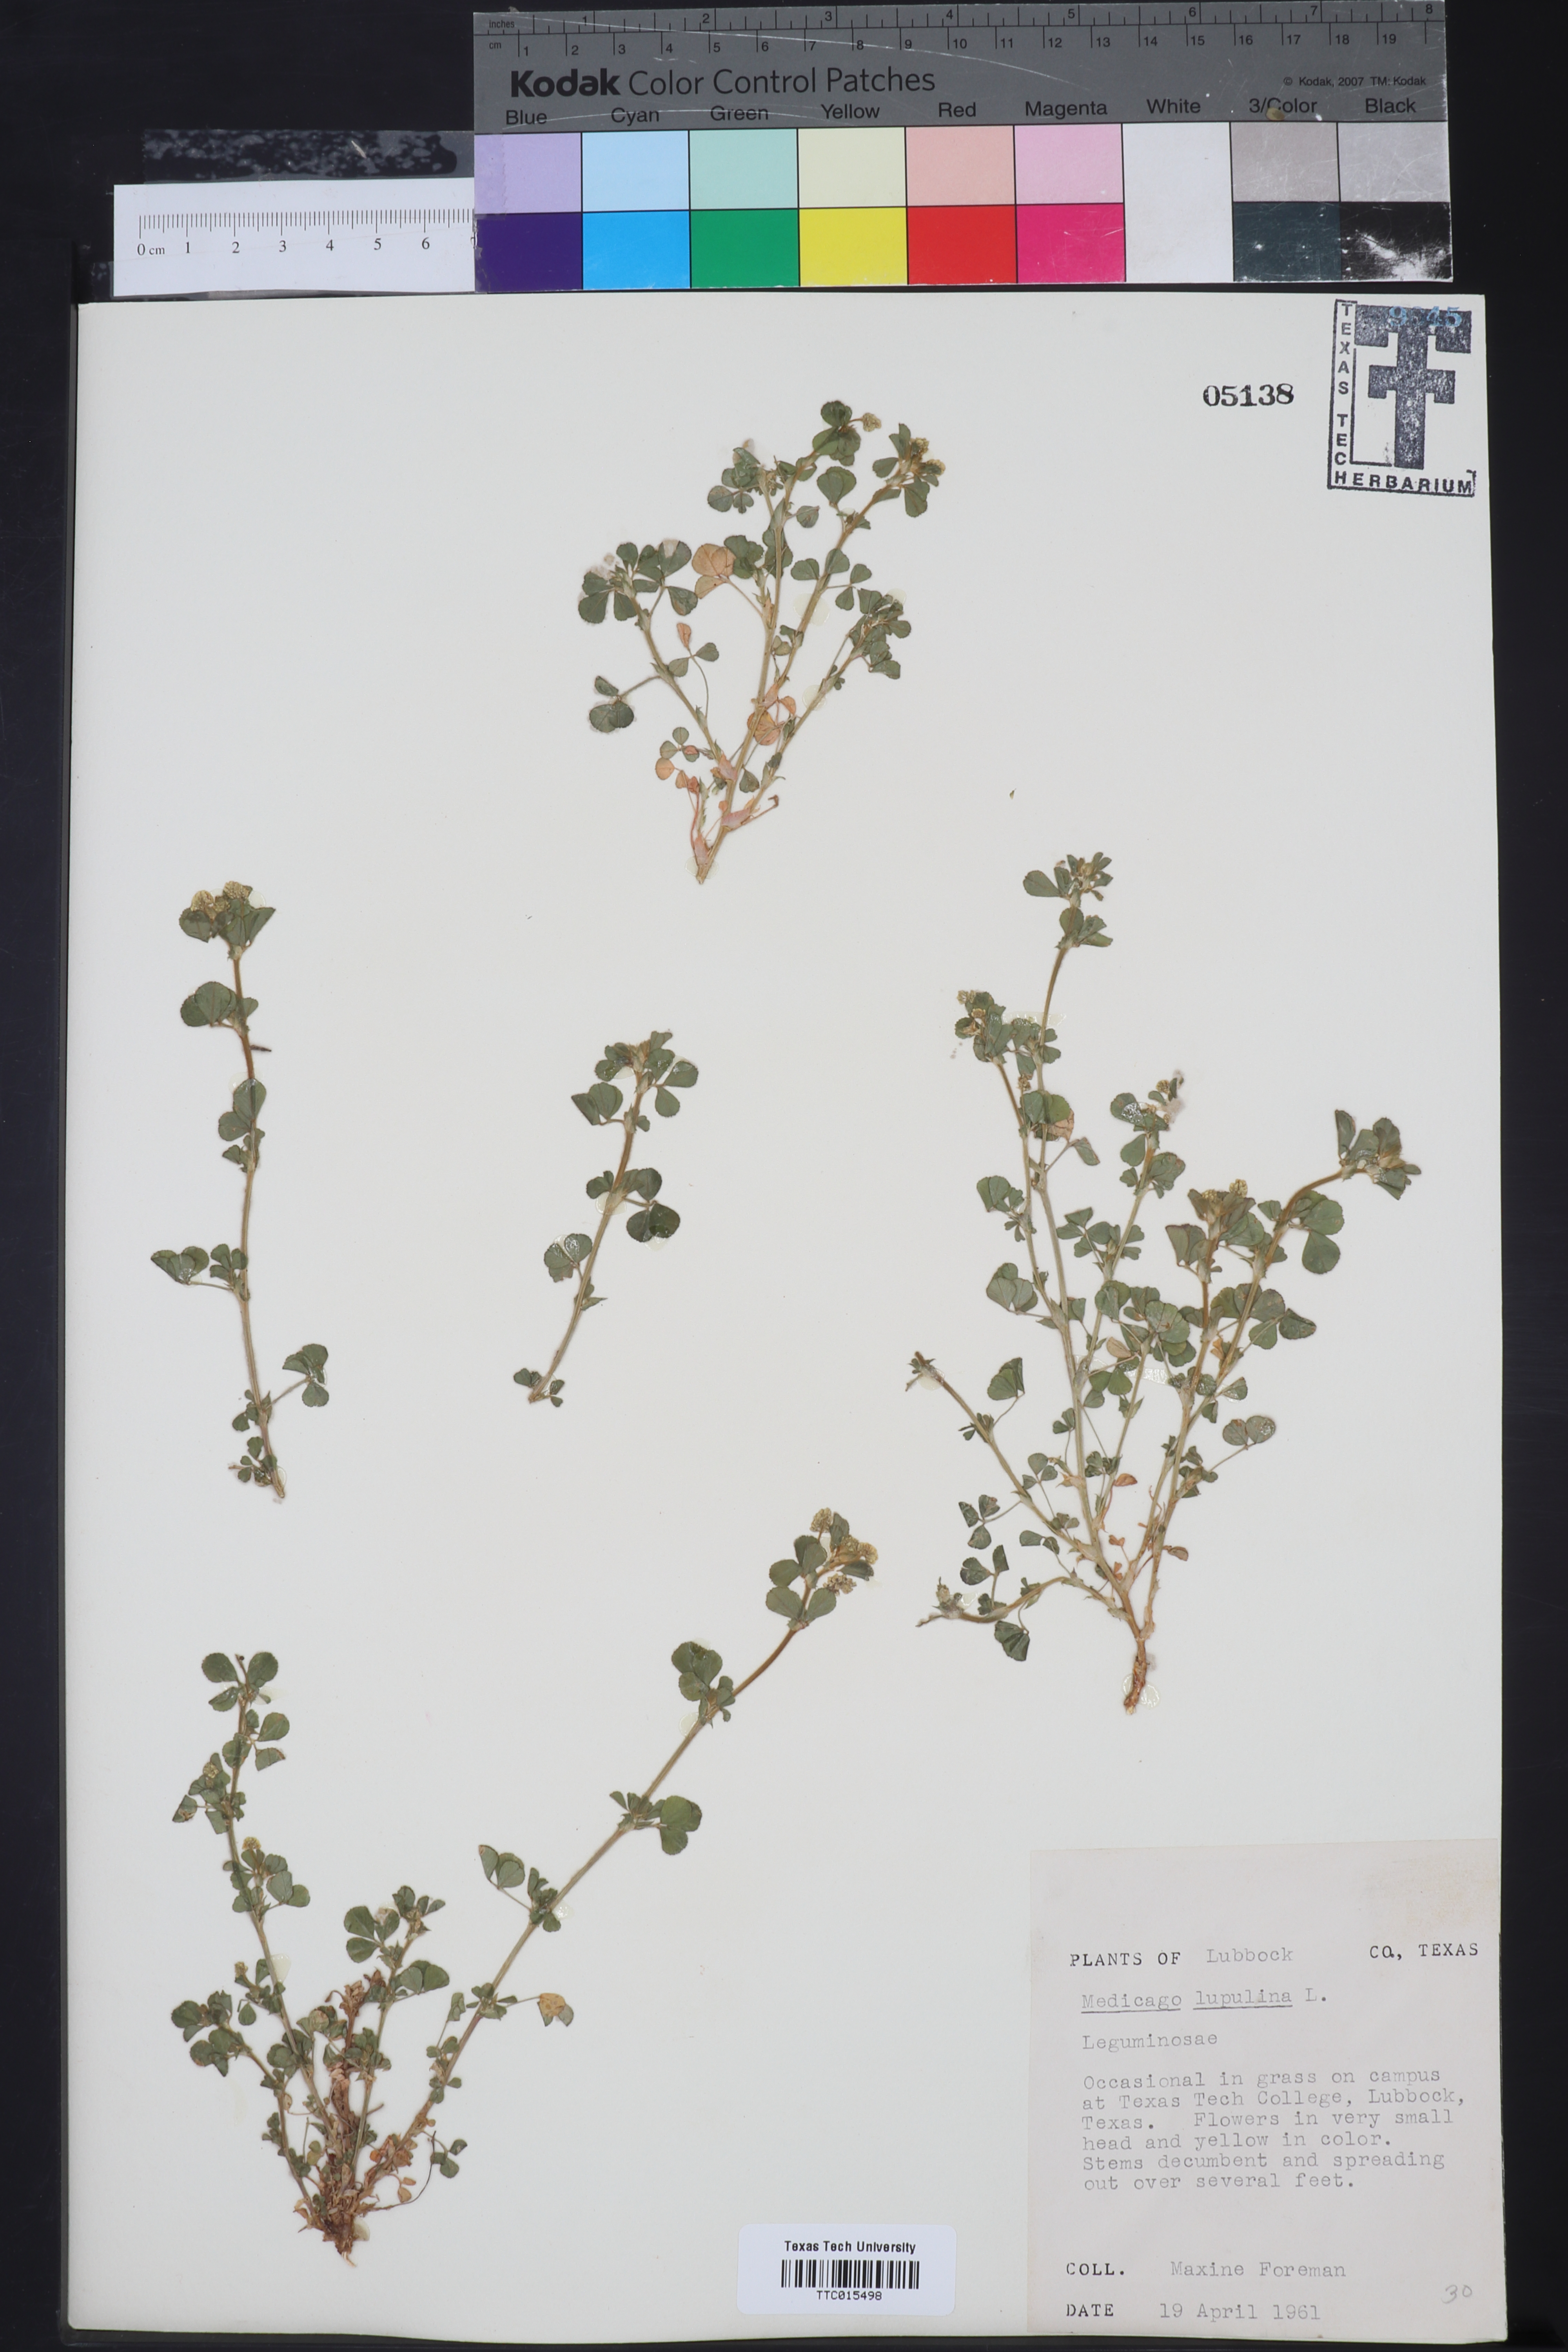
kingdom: Plantae
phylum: Tracheophyta
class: Magnoliopsida
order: Fabales
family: Fabaceae
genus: Medicago
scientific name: Medicago lupulina
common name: Black medick
